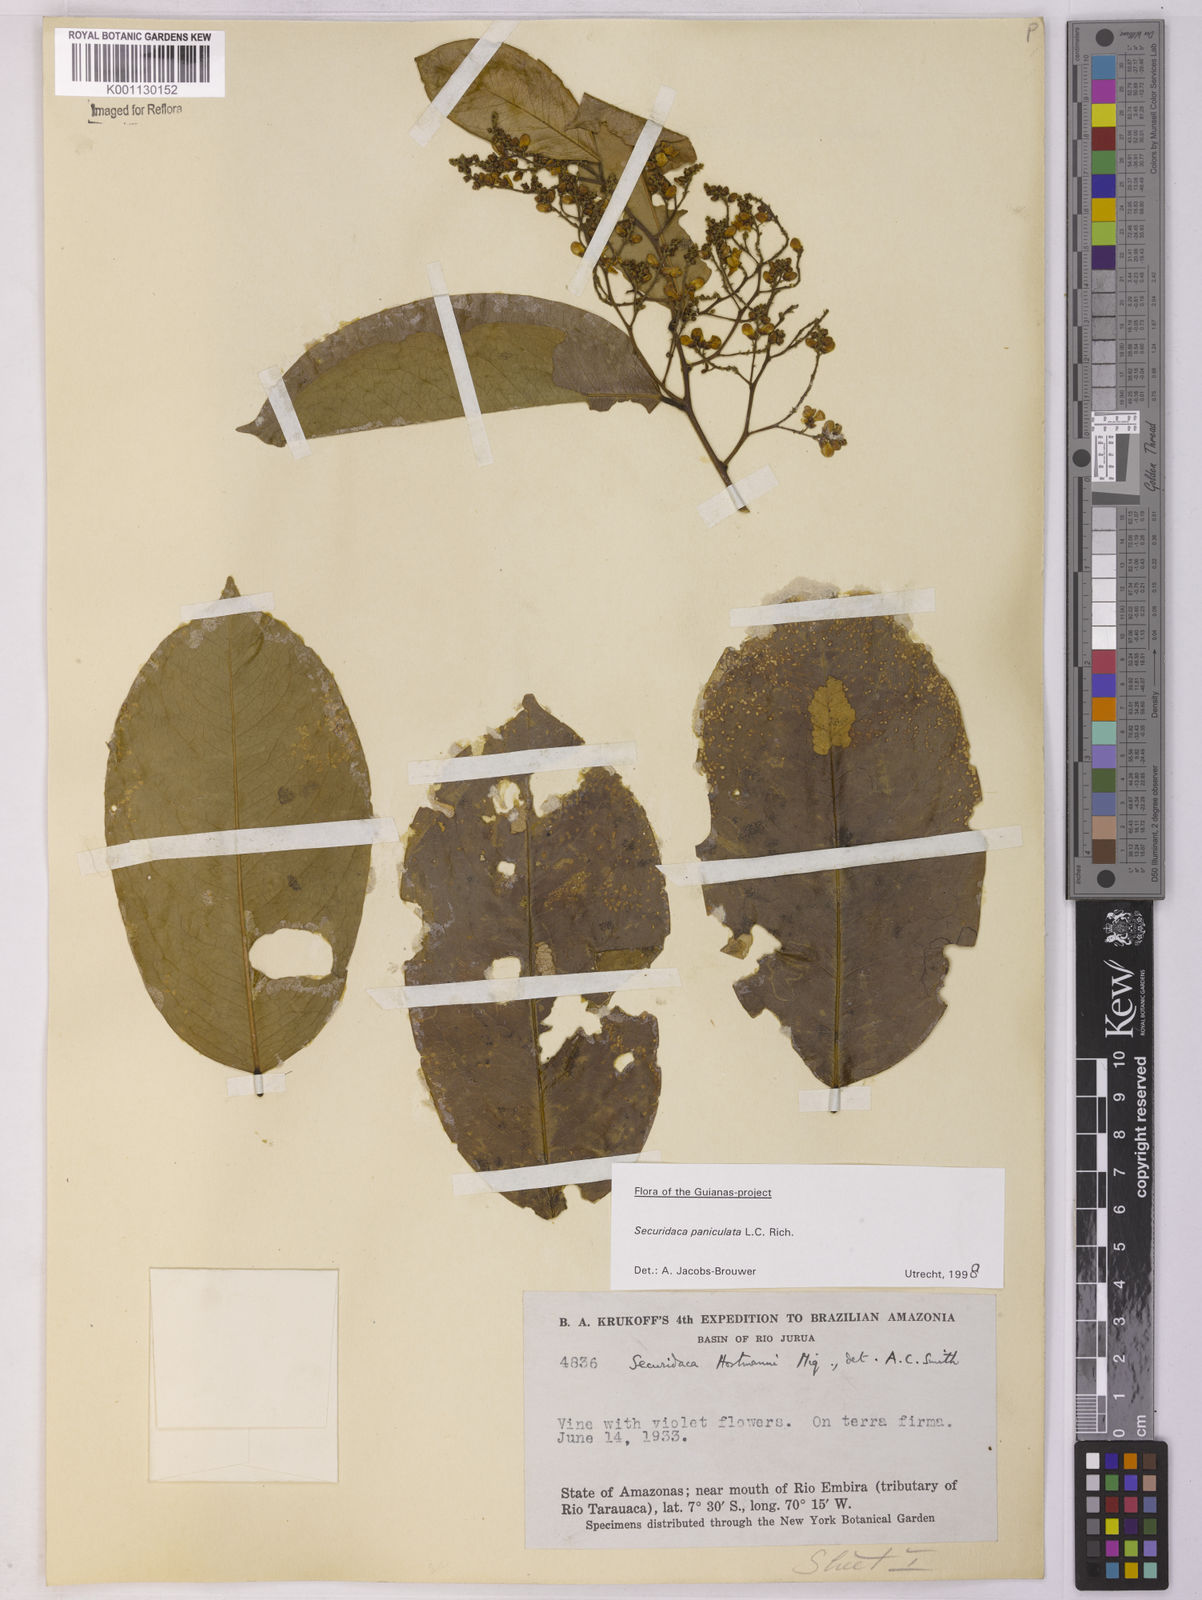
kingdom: Plantae
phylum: Tracheophyta
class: Magnoliopsida
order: Fabales
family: Polygalaceae
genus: Securidaca
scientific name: Securidaca paniculata
